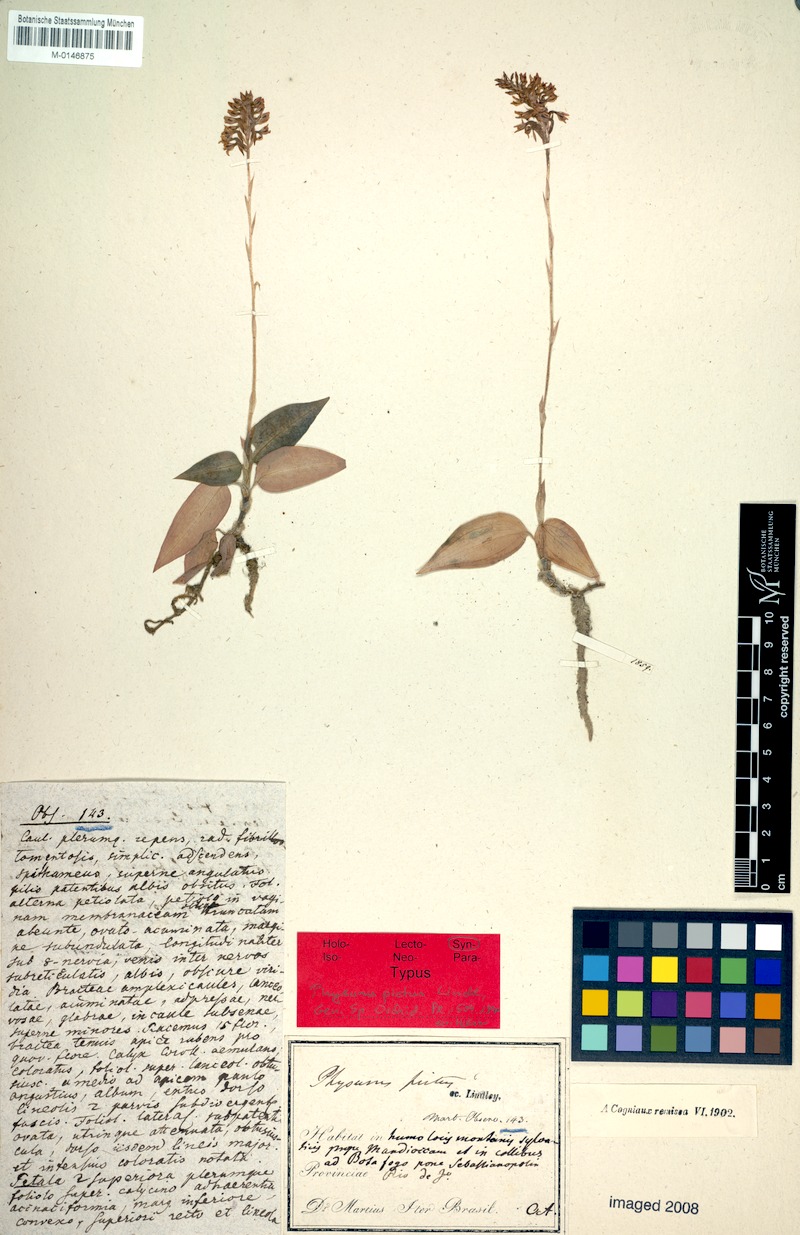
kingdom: Plantae
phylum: Tracheophyta
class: Liliopsida
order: Asparagales
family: Orchidaceae
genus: Aspidogyne
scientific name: Aspidogyne argentea
